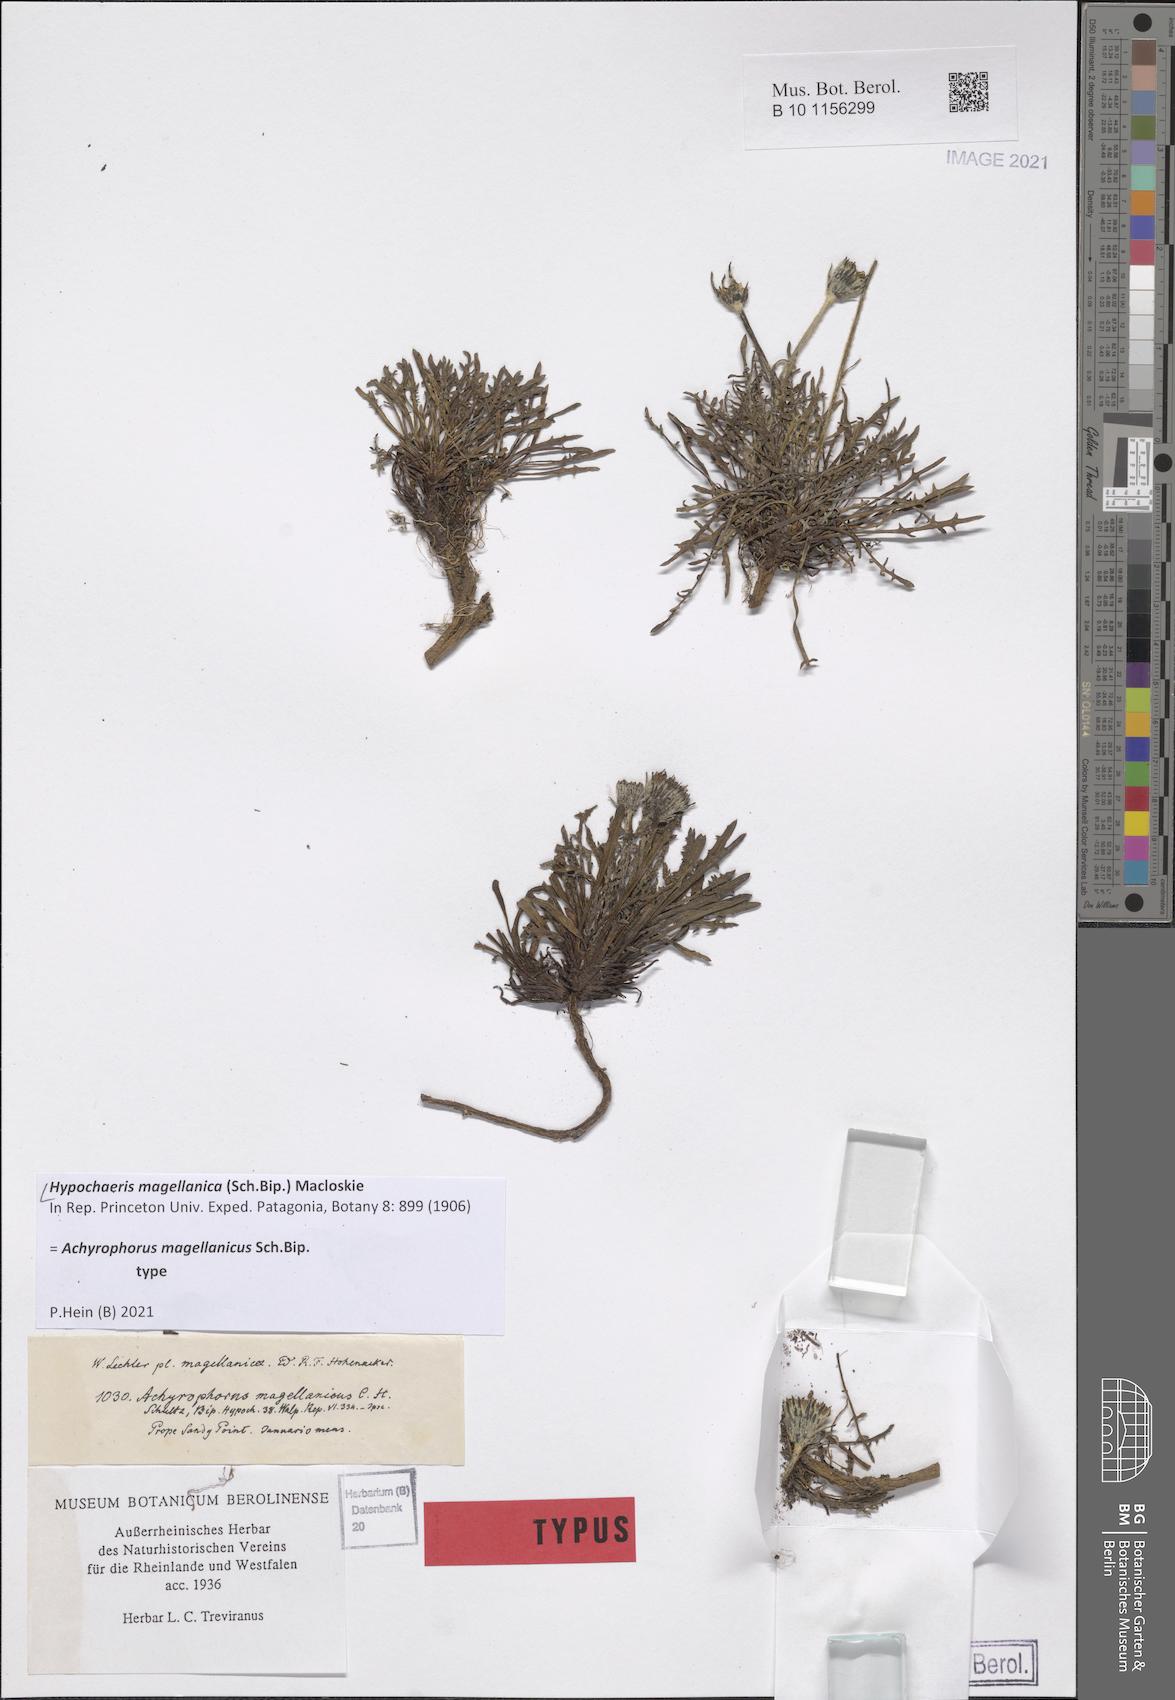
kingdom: Plantae
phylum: Tracheophyta
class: Magnoliopsida
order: Asterales
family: Asteraceae
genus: Hypochaeris
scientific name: Hypochaeris magellanica
